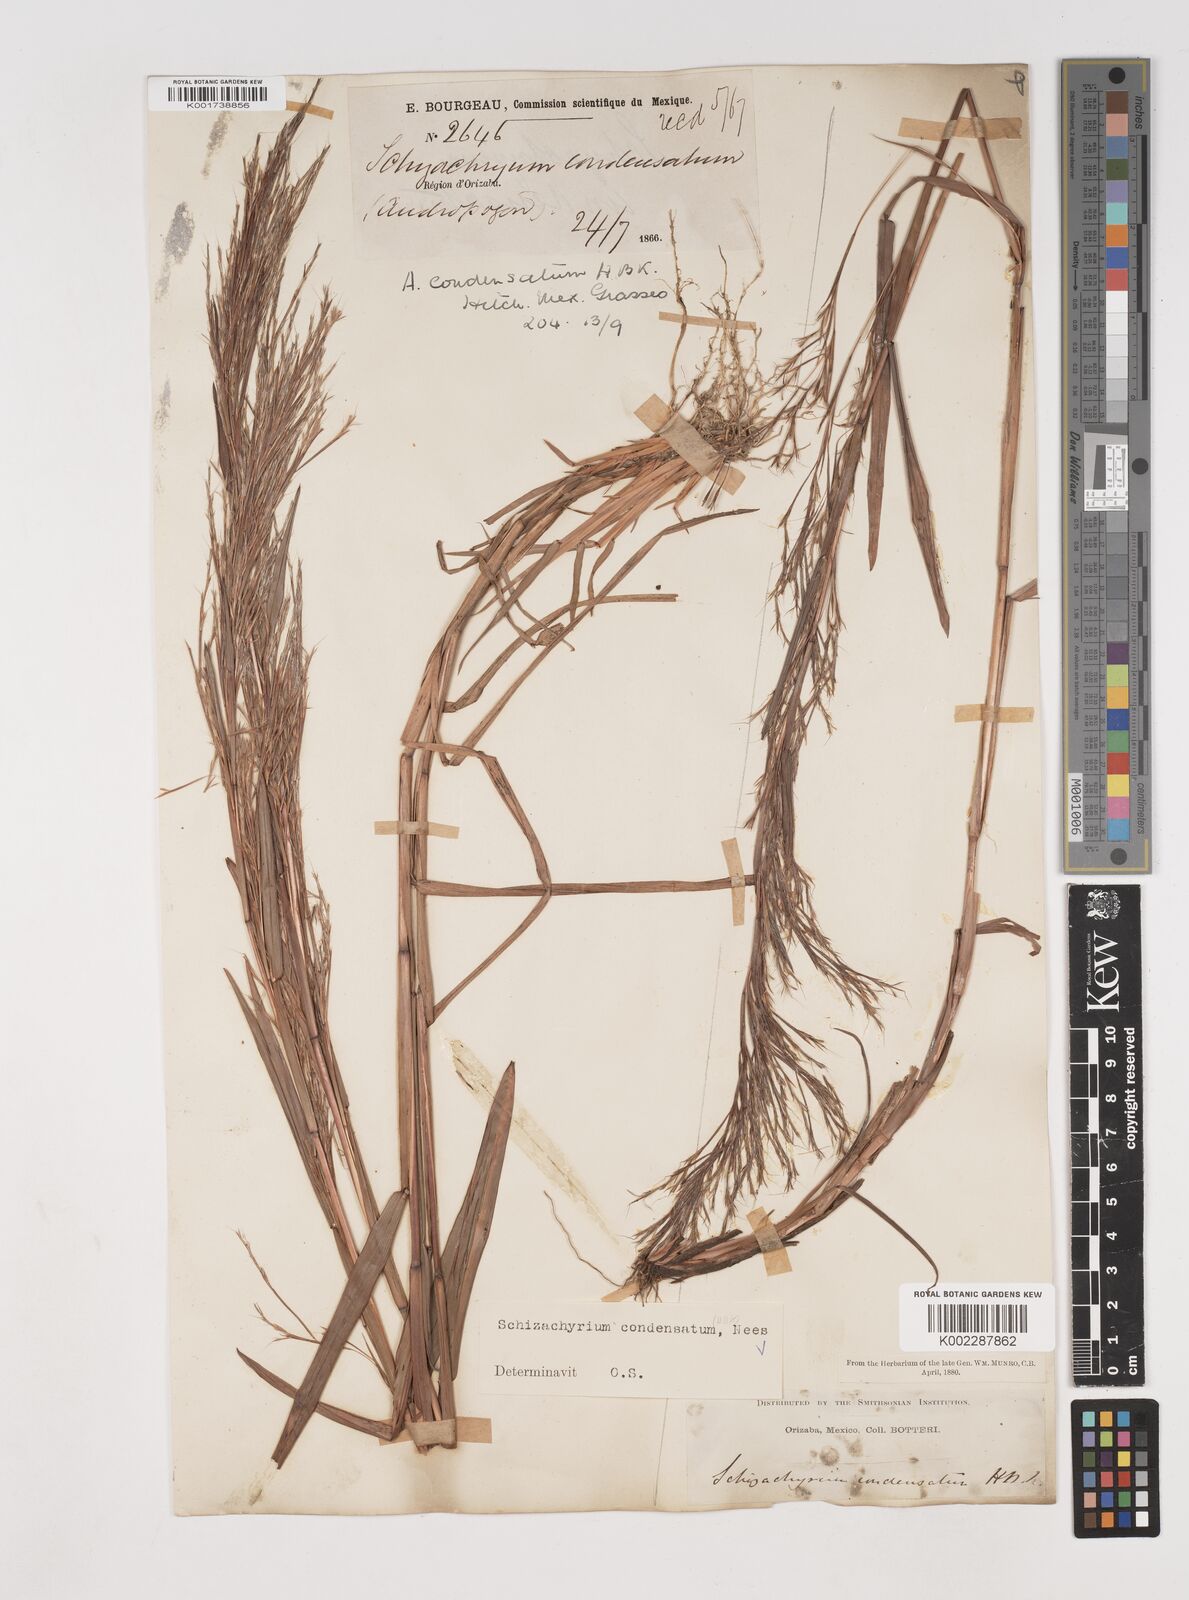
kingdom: Plantae
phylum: Tracheophyta
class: Liliopsida
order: Poales
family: Poaceae
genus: Schizachyrium
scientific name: Schizachyrium condensatum
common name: Bush beardgrass
